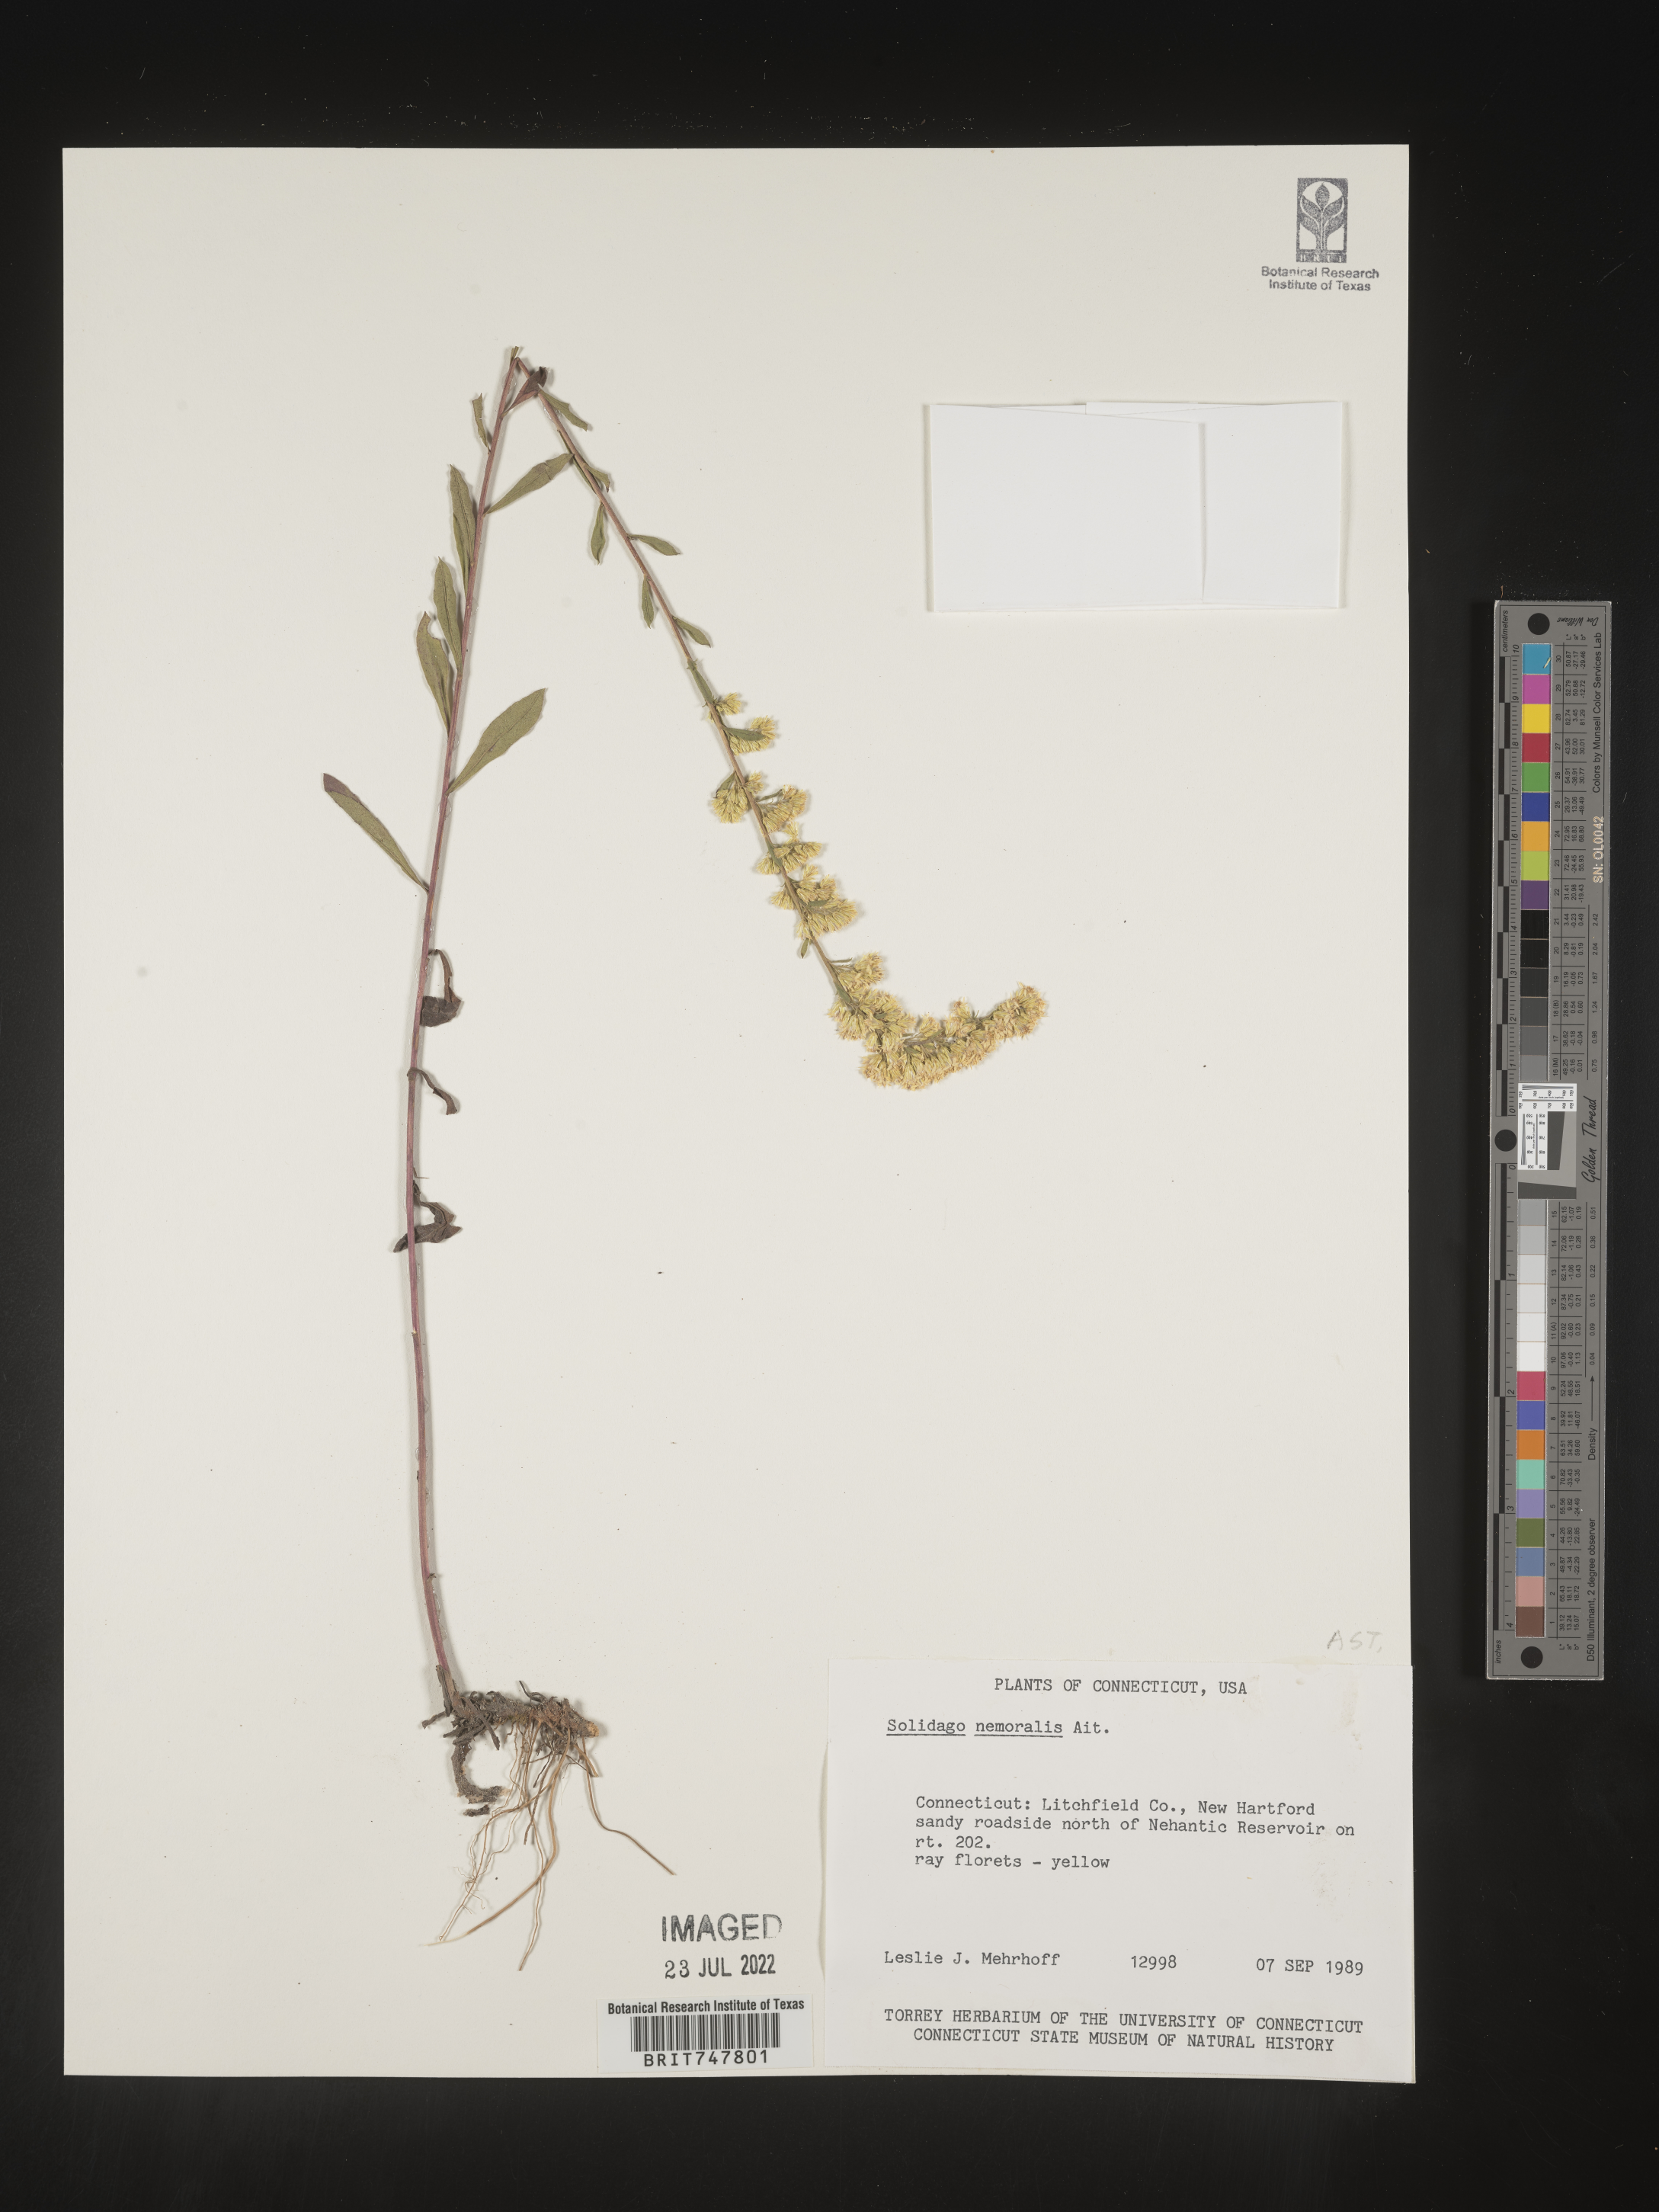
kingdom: Plantae
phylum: Tracheophyta
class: Magnoliopsida
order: Asterales
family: Asteraceae
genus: Solidago
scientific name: Solidago nemoralis
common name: Grey goldenrod
